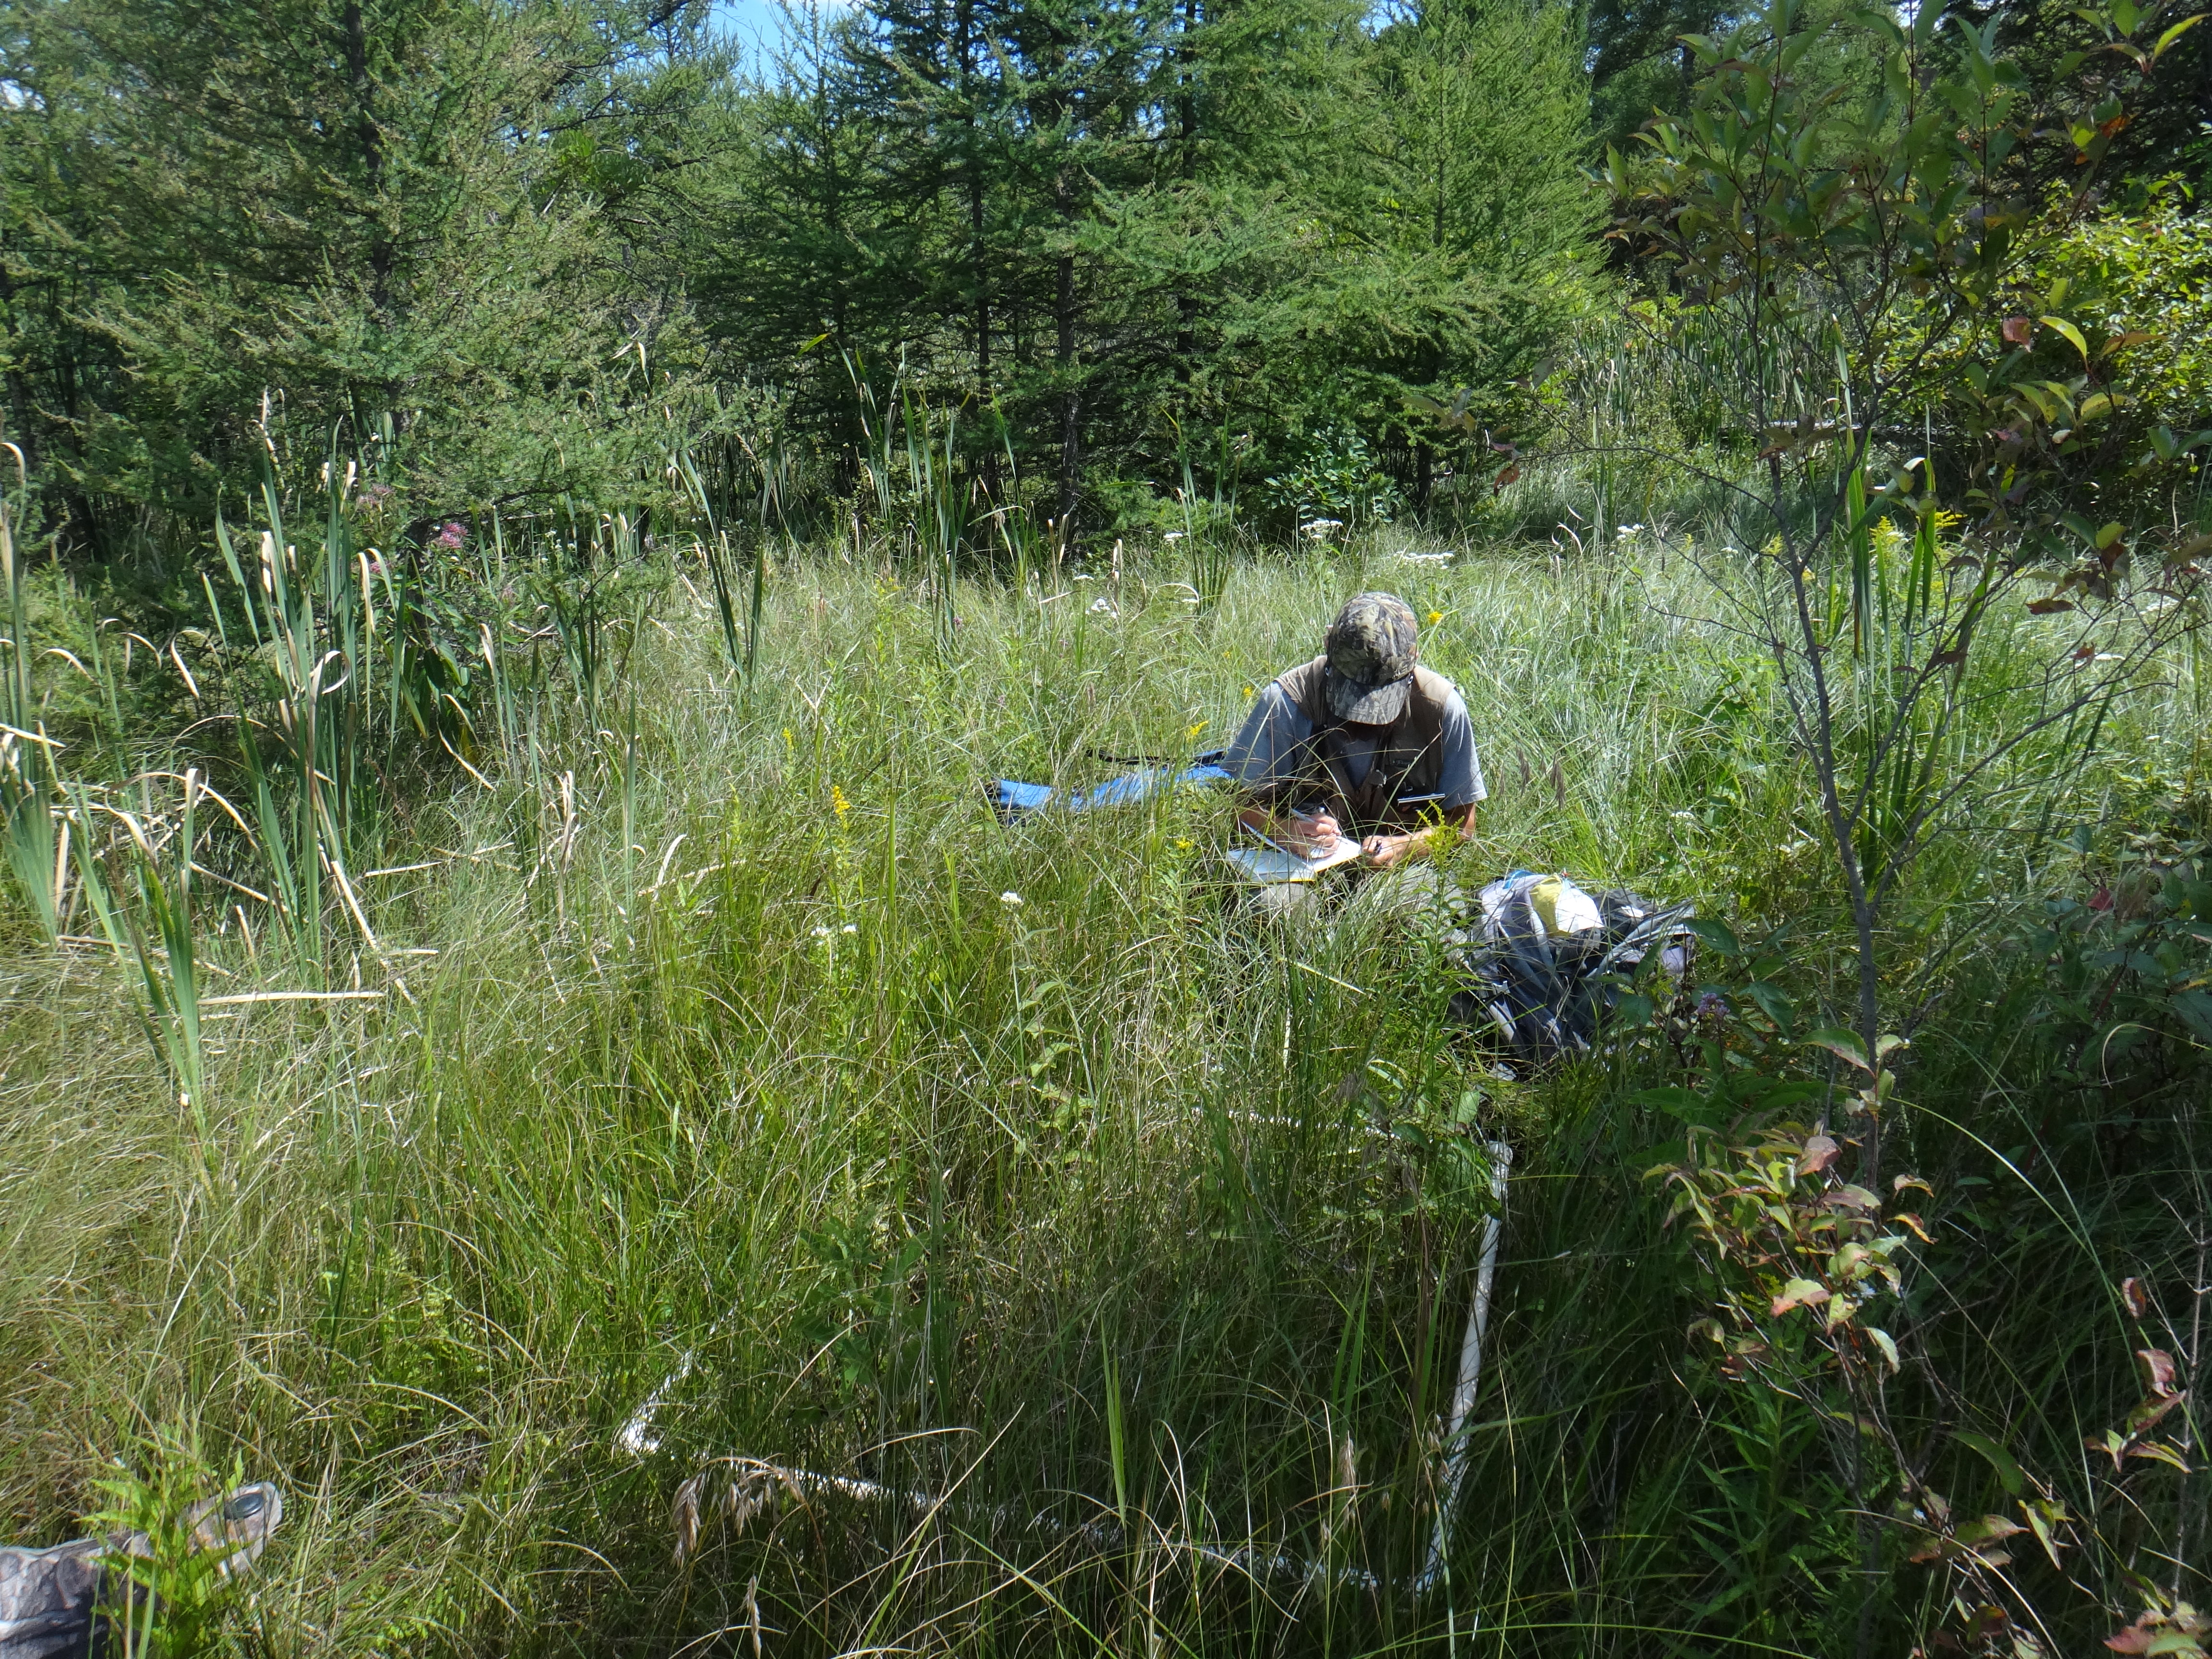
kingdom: Plantae
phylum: Tracheophyta
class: Liliopsida
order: Poales
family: Poaceae
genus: Elymus
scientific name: Elymus repens
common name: Quackgrass
